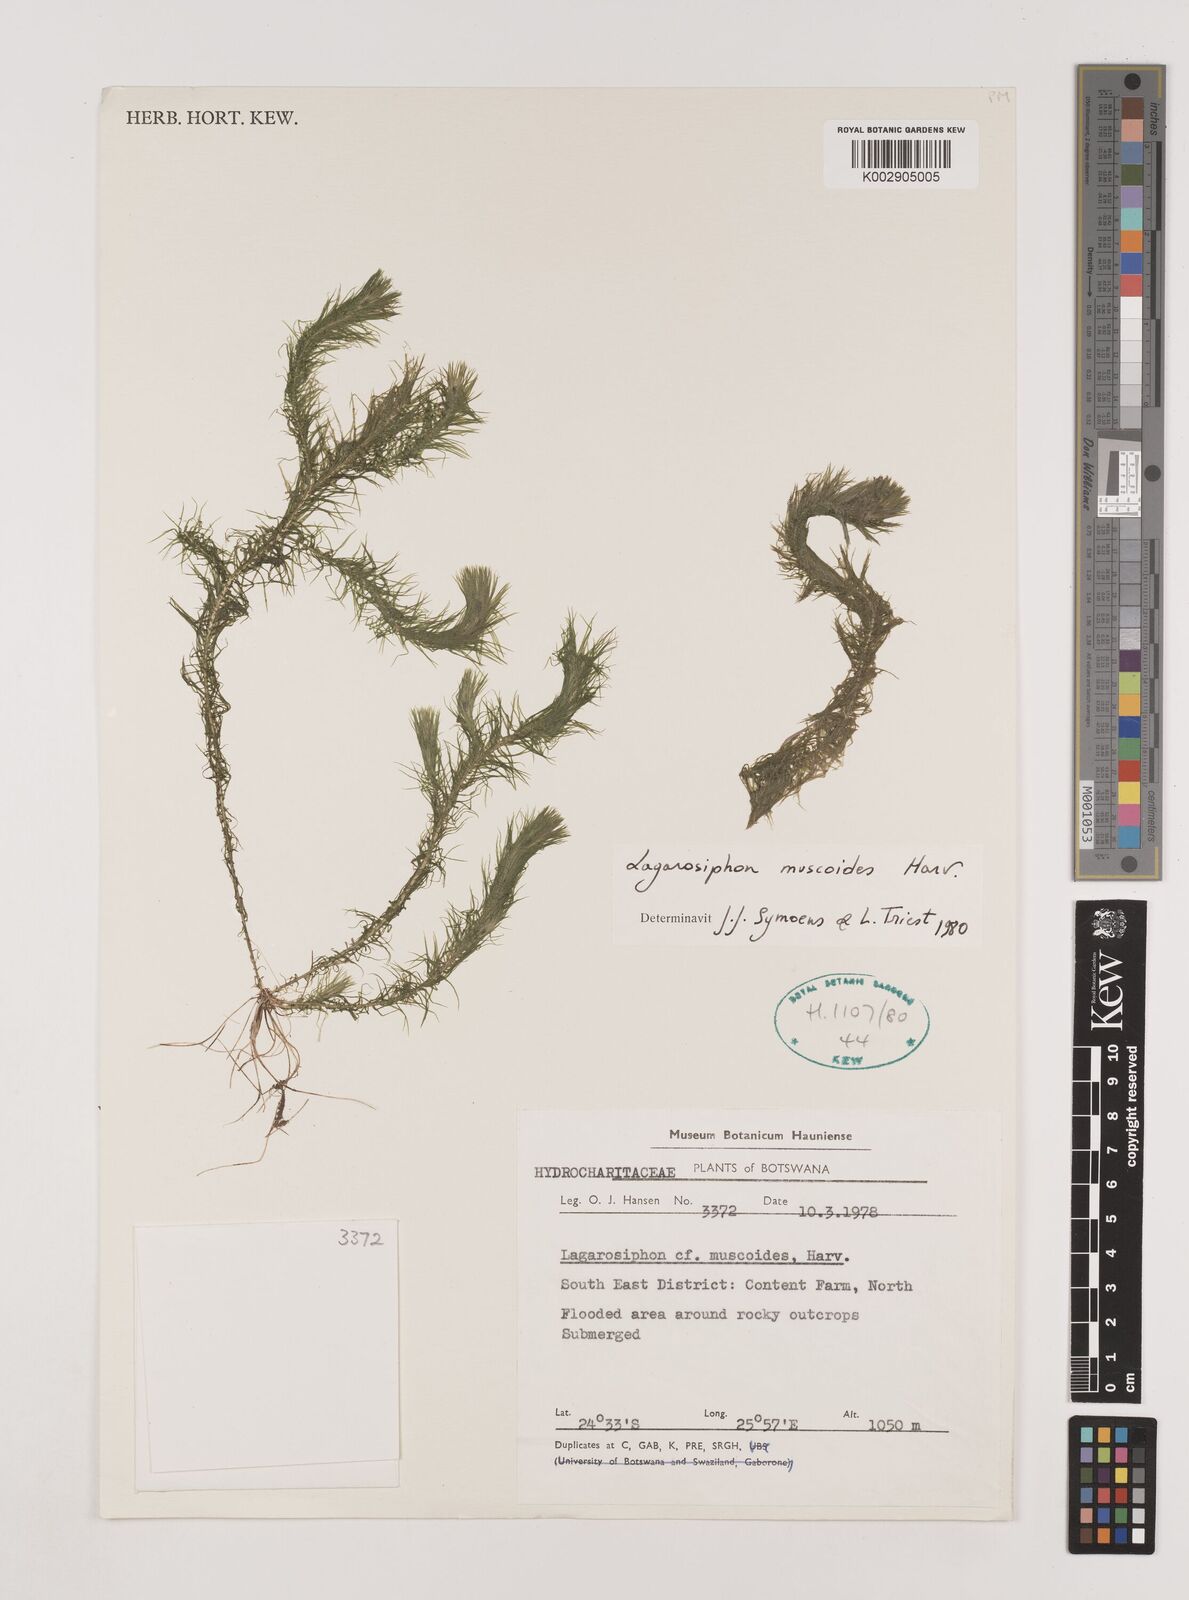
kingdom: Plantae
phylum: Tracheophyta
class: Liliopsida
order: Alismatales
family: Hydrocharitaceae
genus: Lagarosiphon
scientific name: Lagarosiphon muscoides
